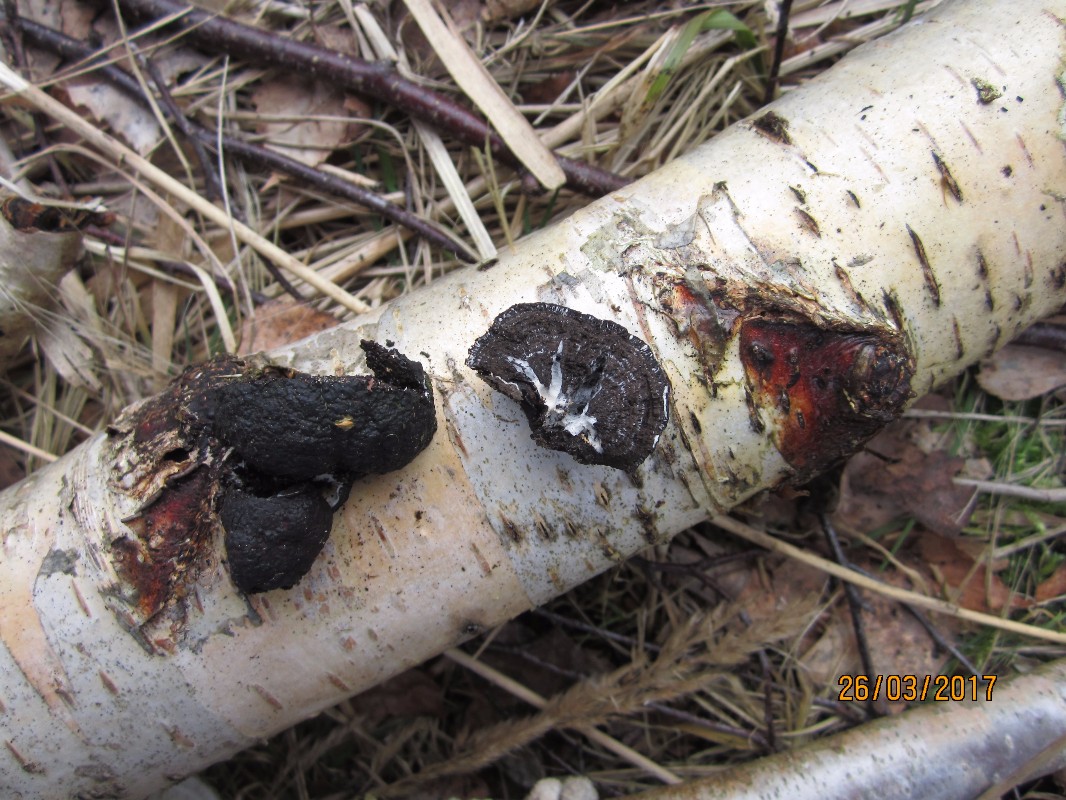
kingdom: Fungi
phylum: Ascomycota
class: Sordariomycetes
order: Xylariales
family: Hypoxylaceae
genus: Daldinia
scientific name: Daldinia
